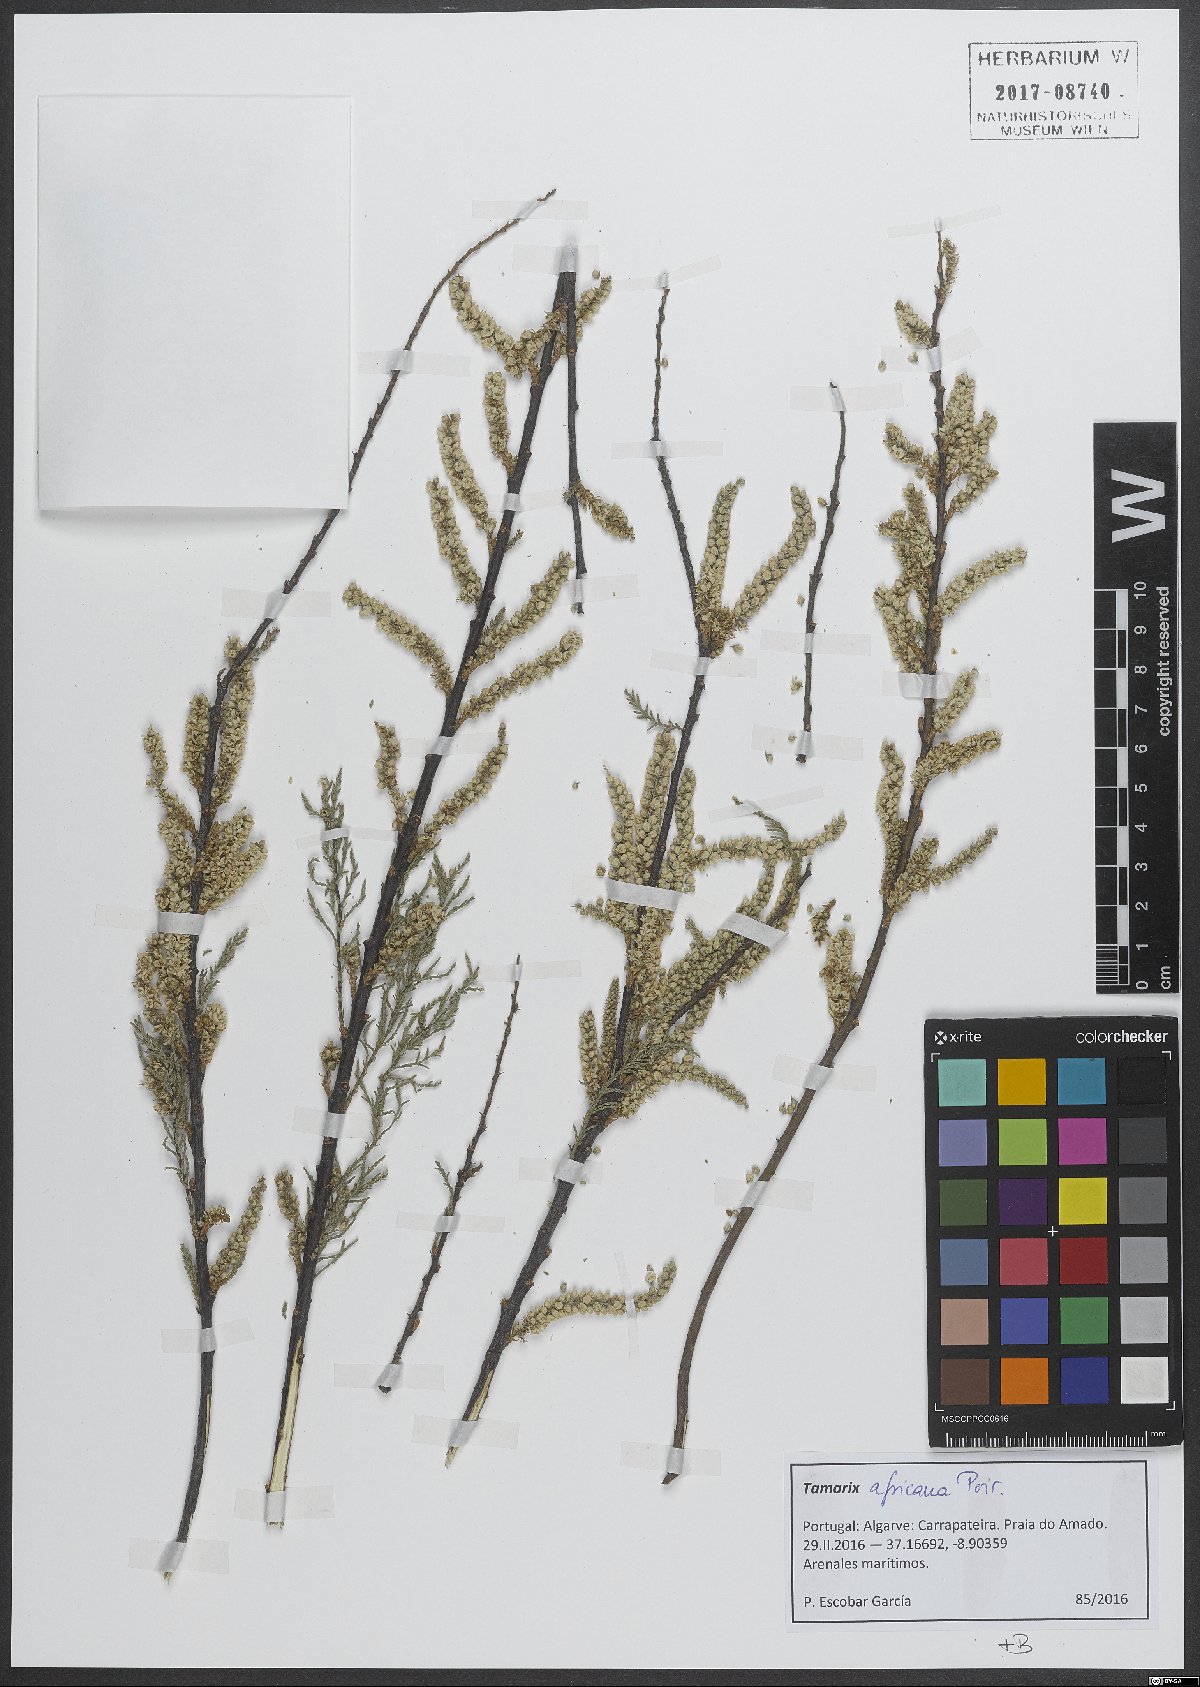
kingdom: Plantae
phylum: Tracheophyta
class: Magnoliopsida
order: Caryophyllales
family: Tamaricaceae
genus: Tamarix
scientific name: Tamarix africana
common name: African tamarisk
